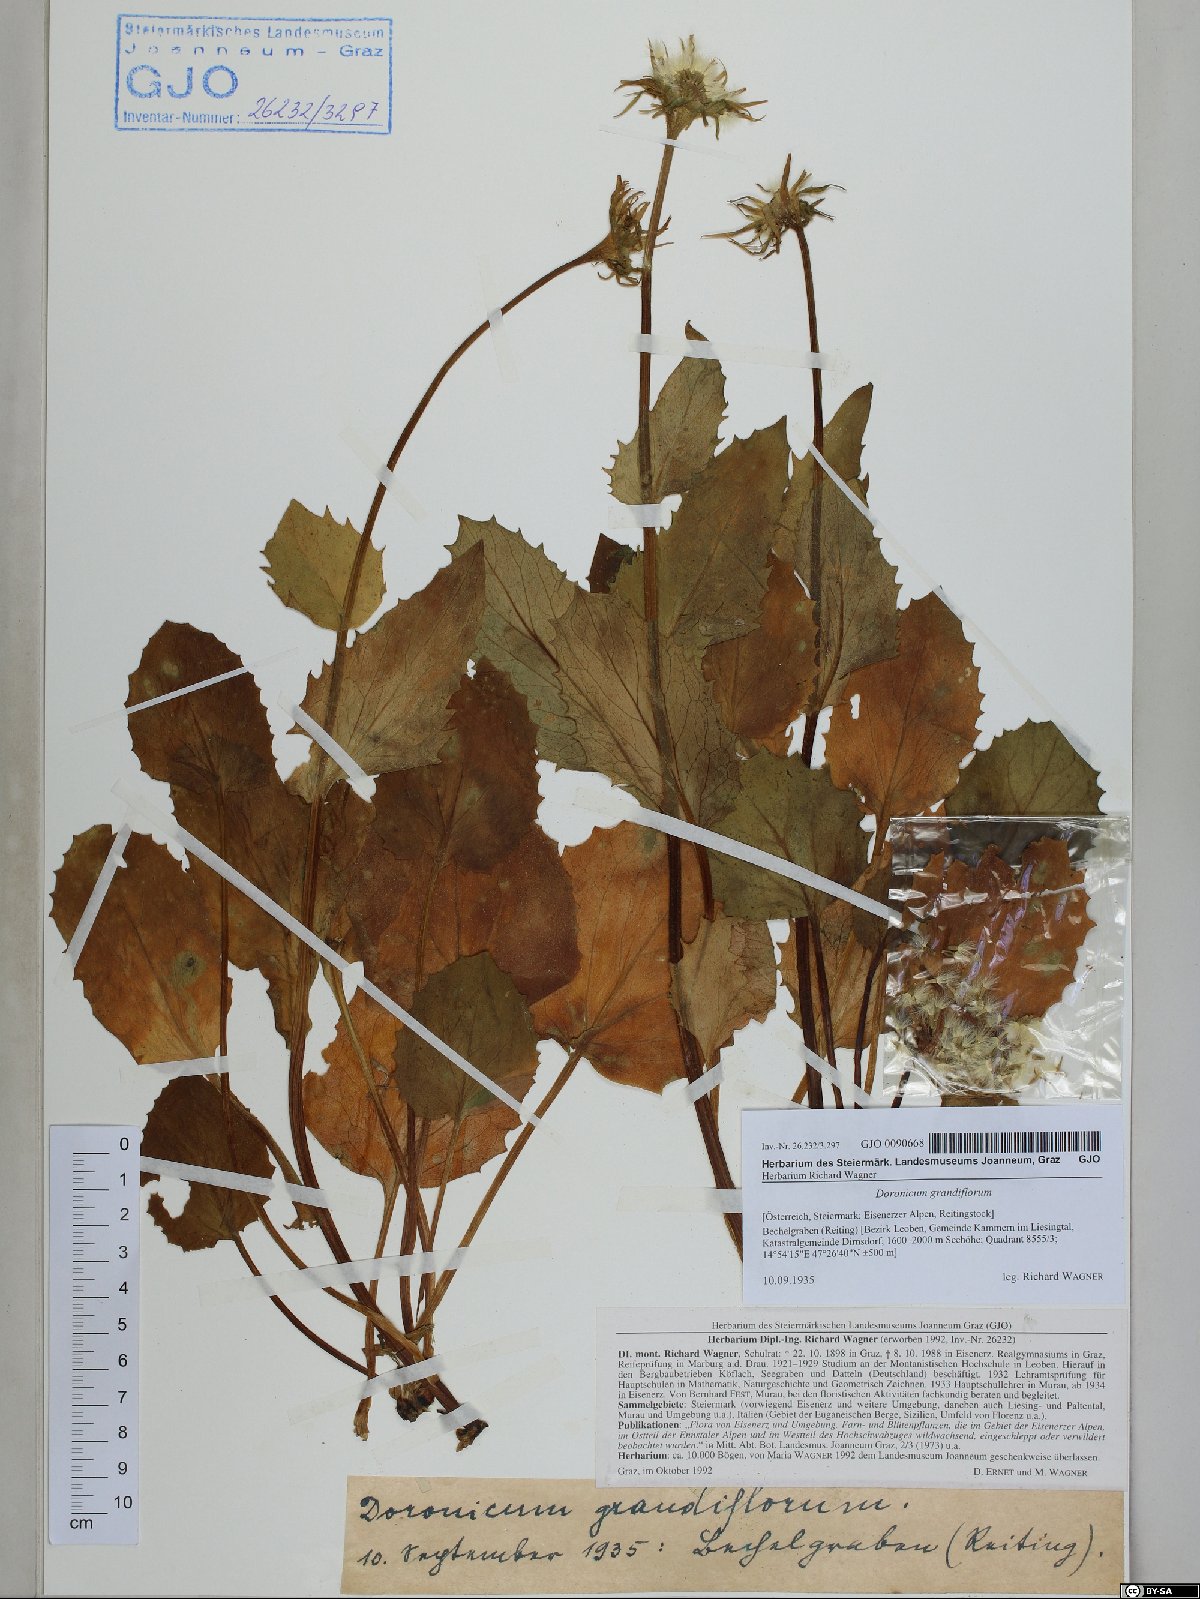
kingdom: Plantae
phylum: Tracheophyta
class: Magnoliopsida
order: Asterales
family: Asteraceae
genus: Doronicum
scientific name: Doronicum grandiflorum
